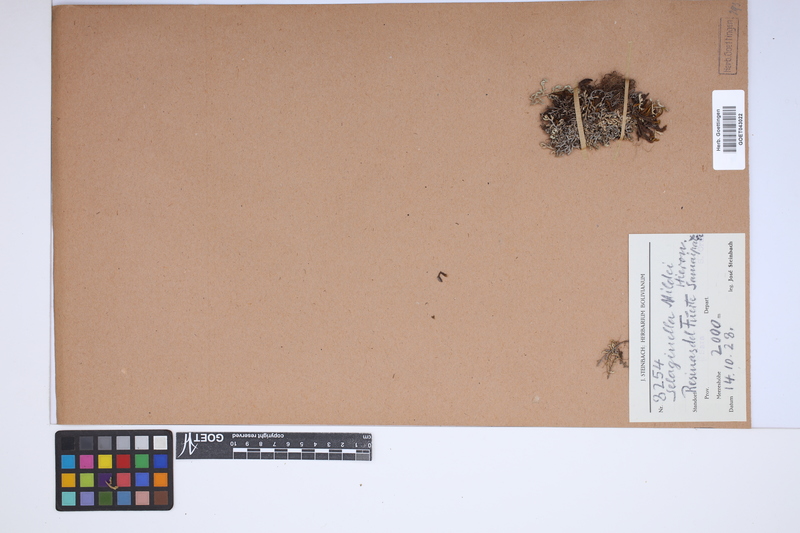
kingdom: Plantae
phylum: Tracheophyta
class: Lycopodiopsida
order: Selaginellales
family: Selaginellaceae
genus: Selaginella
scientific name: Selaginella sellowii
